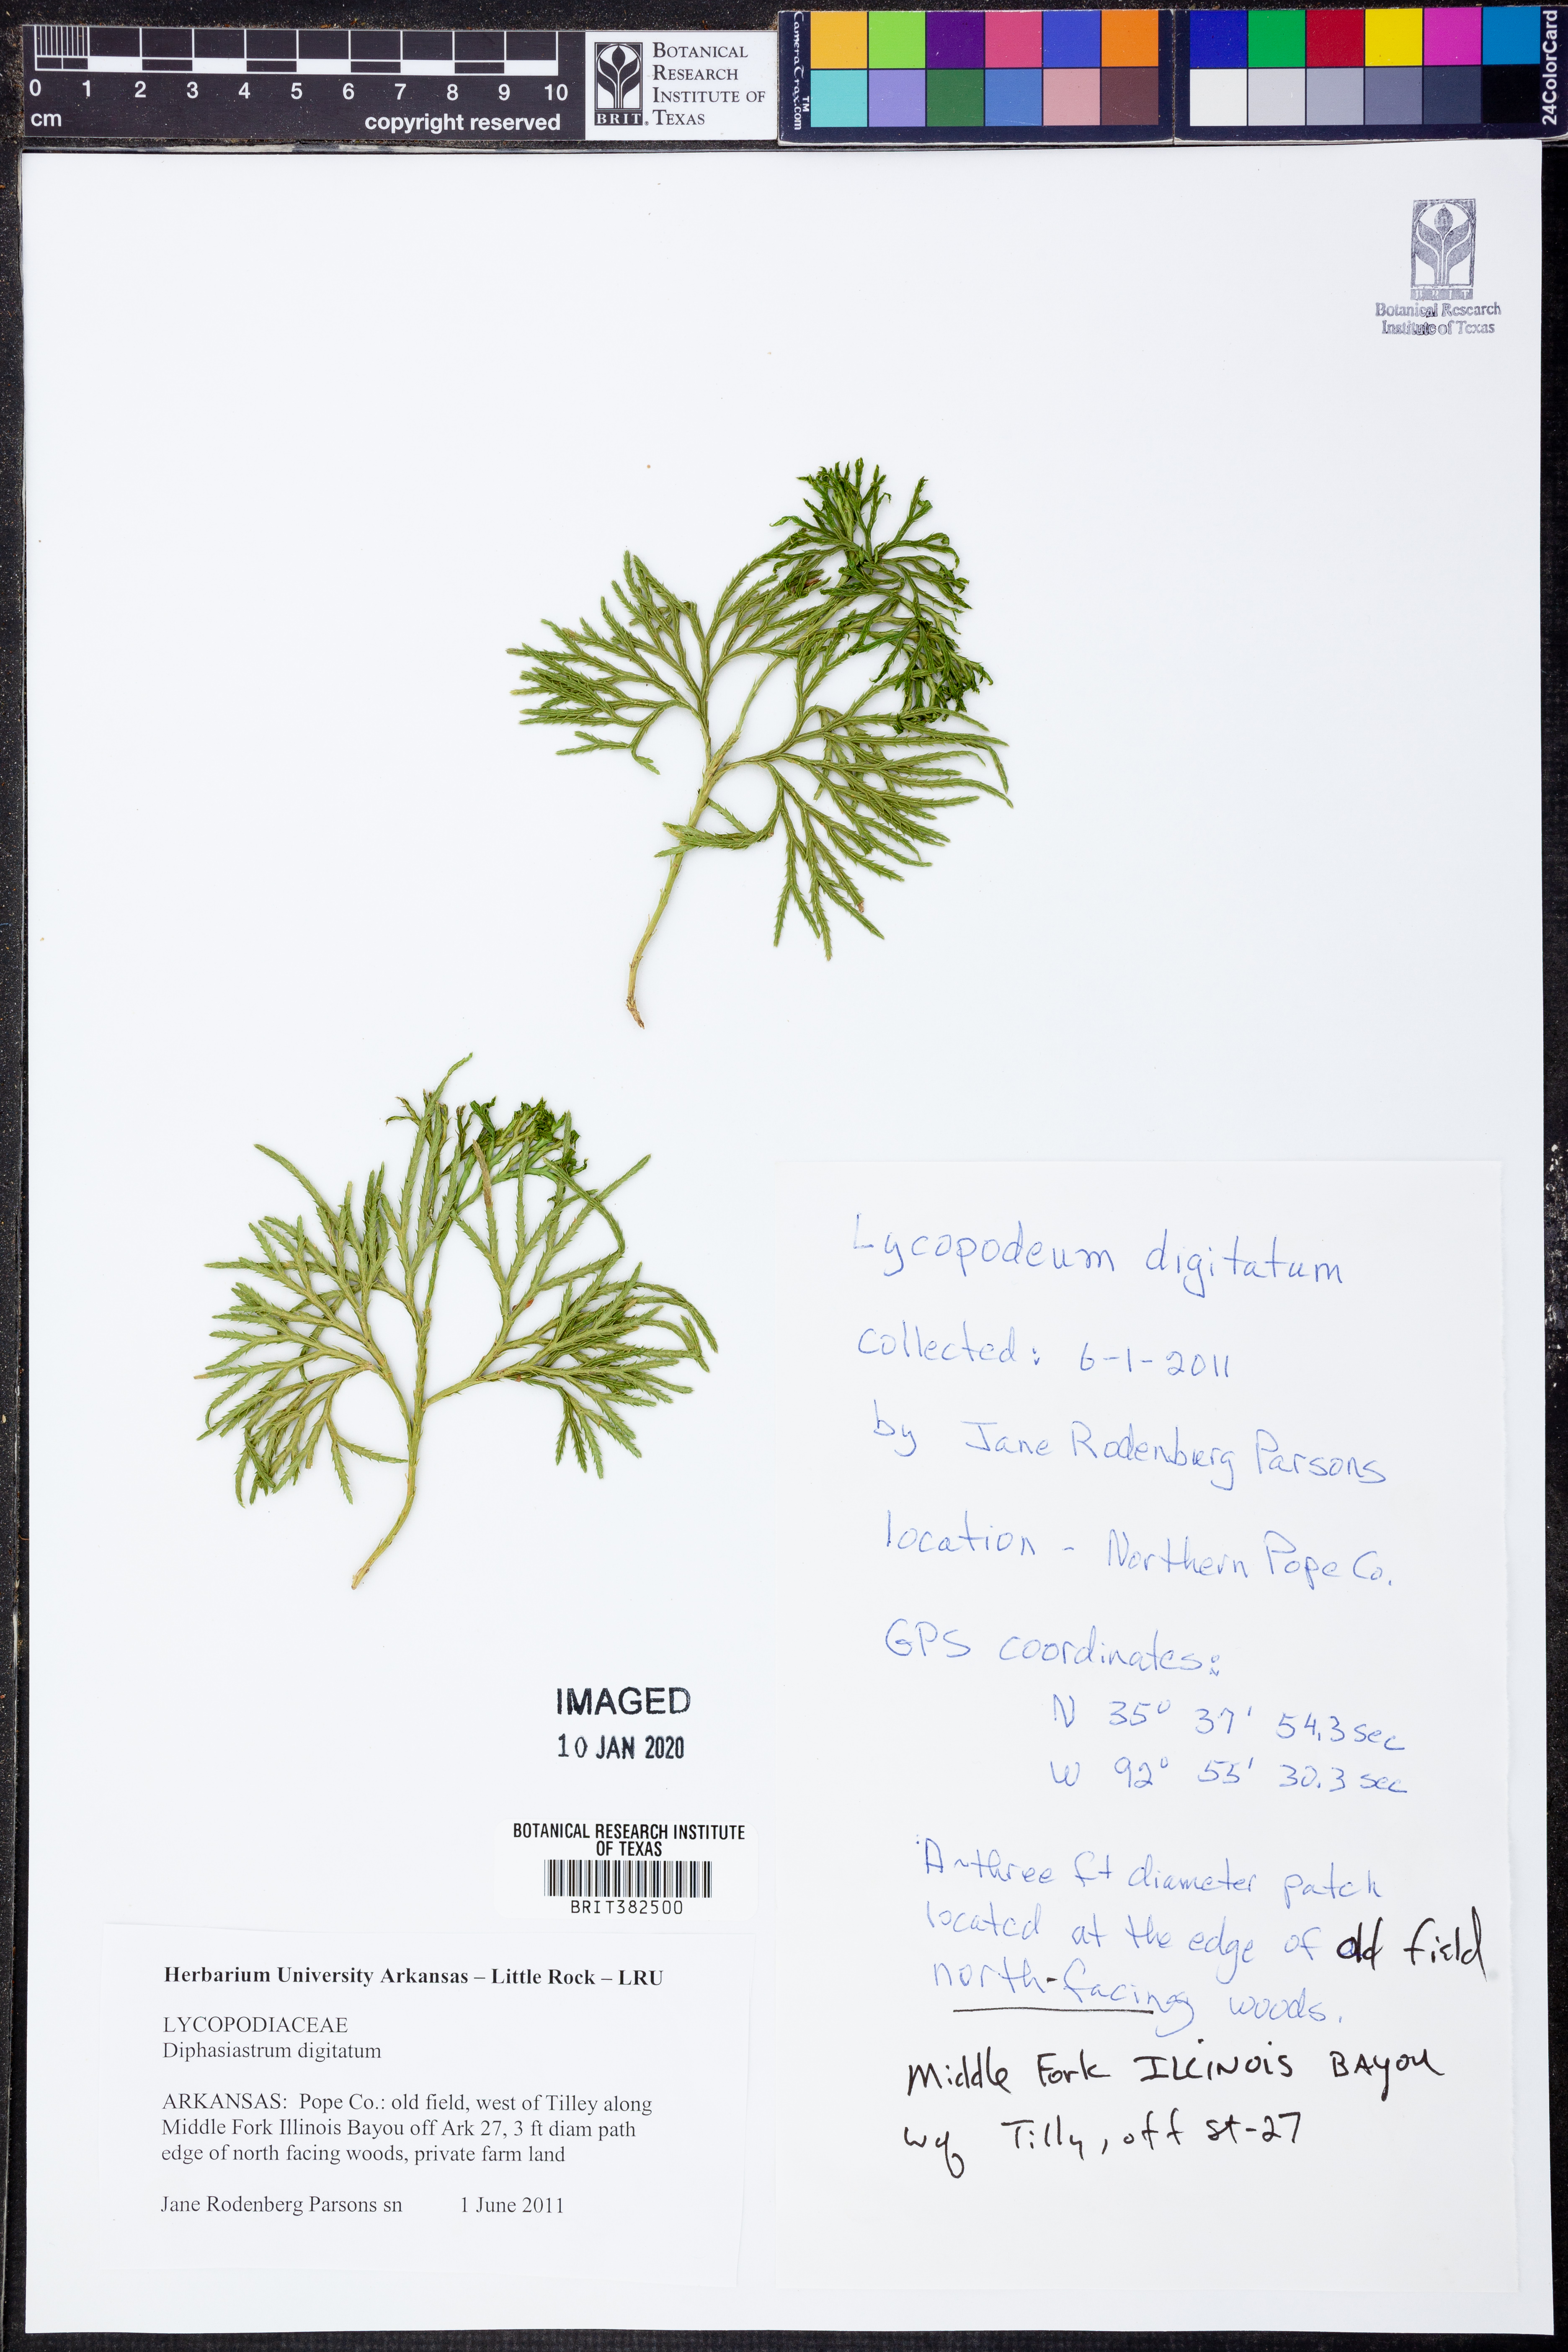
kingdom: Plantae
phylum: Tracheophyta
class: Lycopodiopsida
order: Lycopodiales
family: Lycopodiaceae
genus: Diphasiastrum
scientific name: Diphasiastrum digitatum
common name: Southern running-pine
